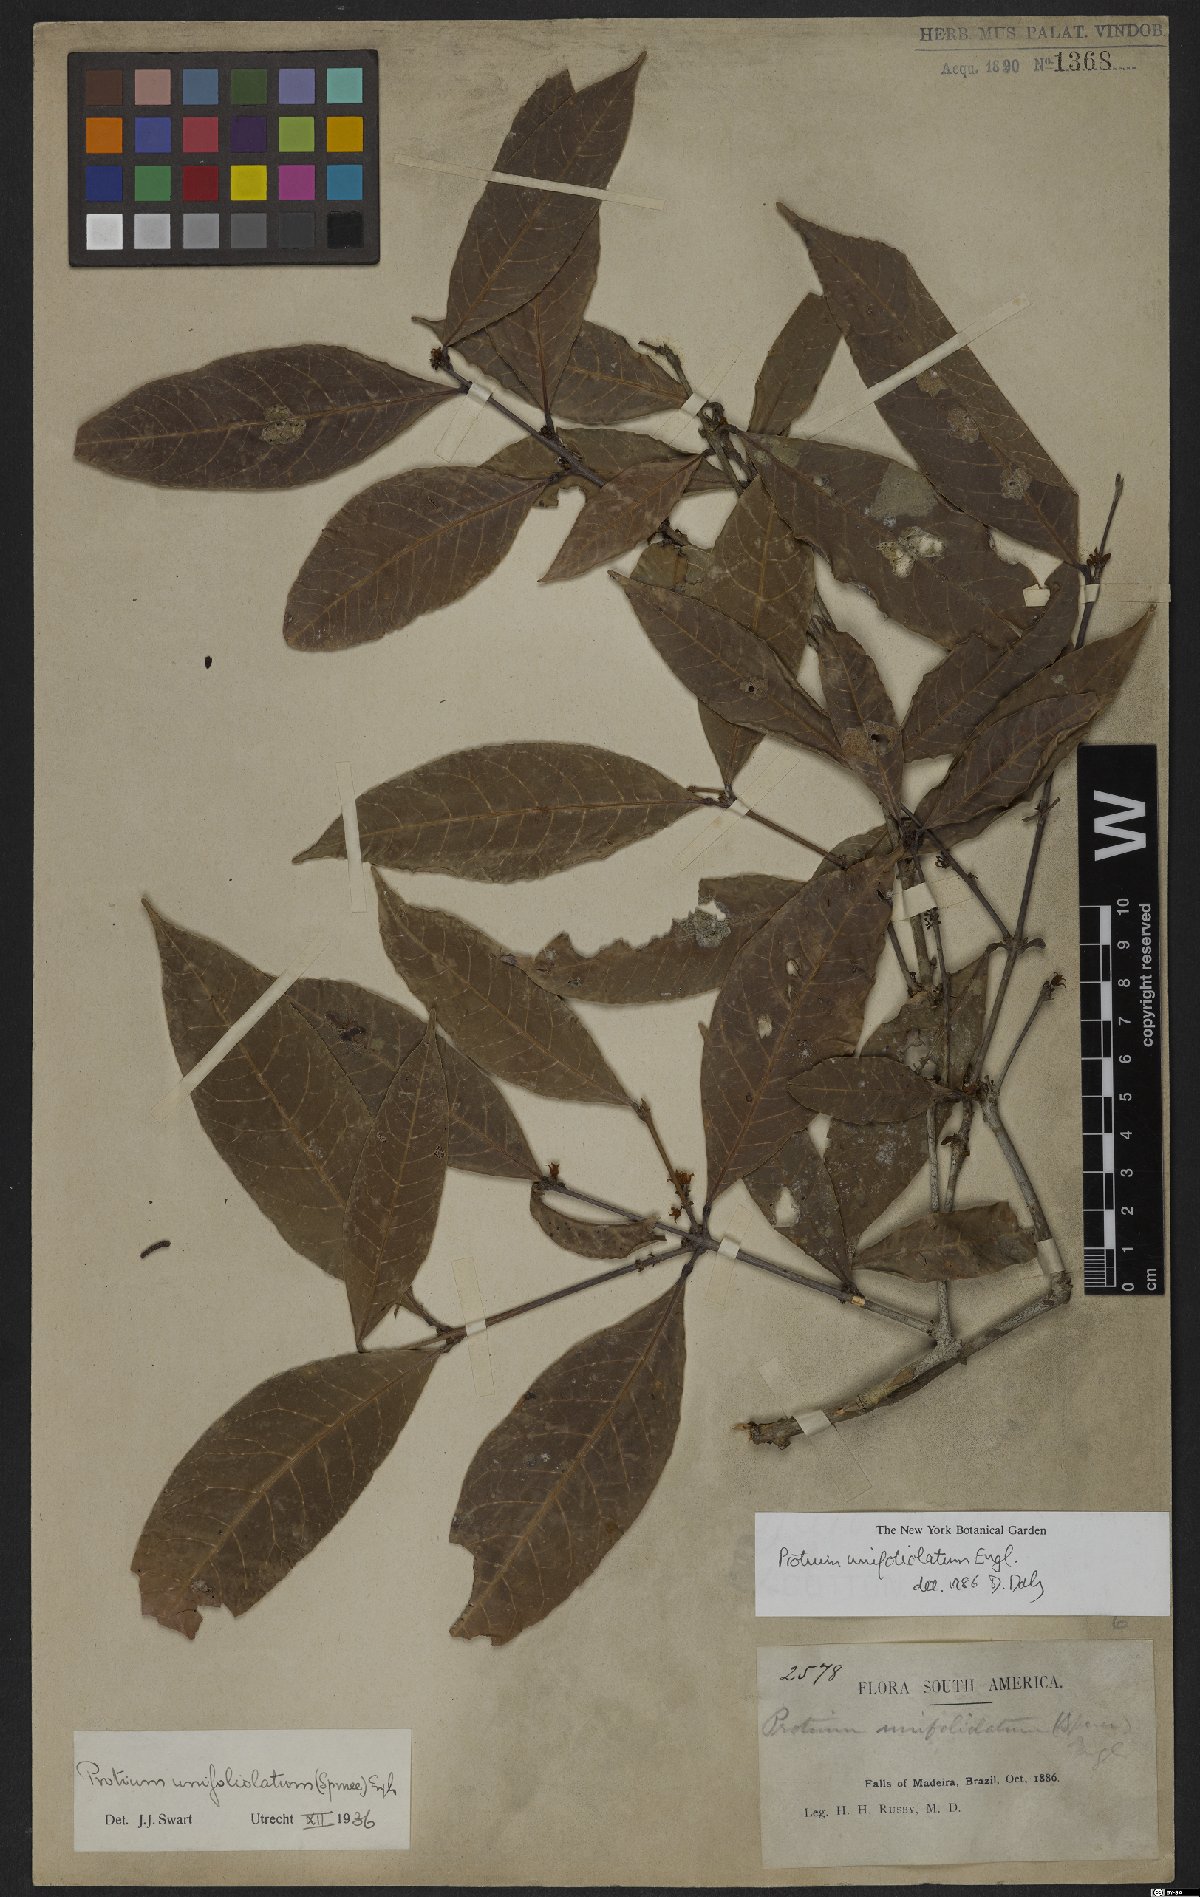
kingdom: Plantae
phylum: Tracheophyta
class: Magnoliopsida
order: Sapindales
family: Burseraceae
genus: Protium
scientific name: Protium unifoliolatum
